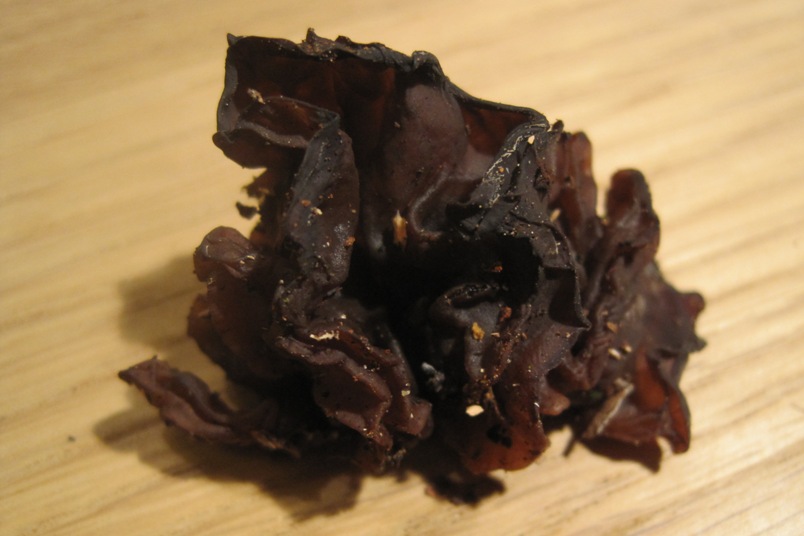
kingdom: Fungi
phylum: Basidiomycota
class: Tremellomycetes
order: Tremellales
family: Tremellaceae
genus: Phaeotremella
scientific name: Phaeotremella frondosa
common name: kæmpe-bævresvamp
